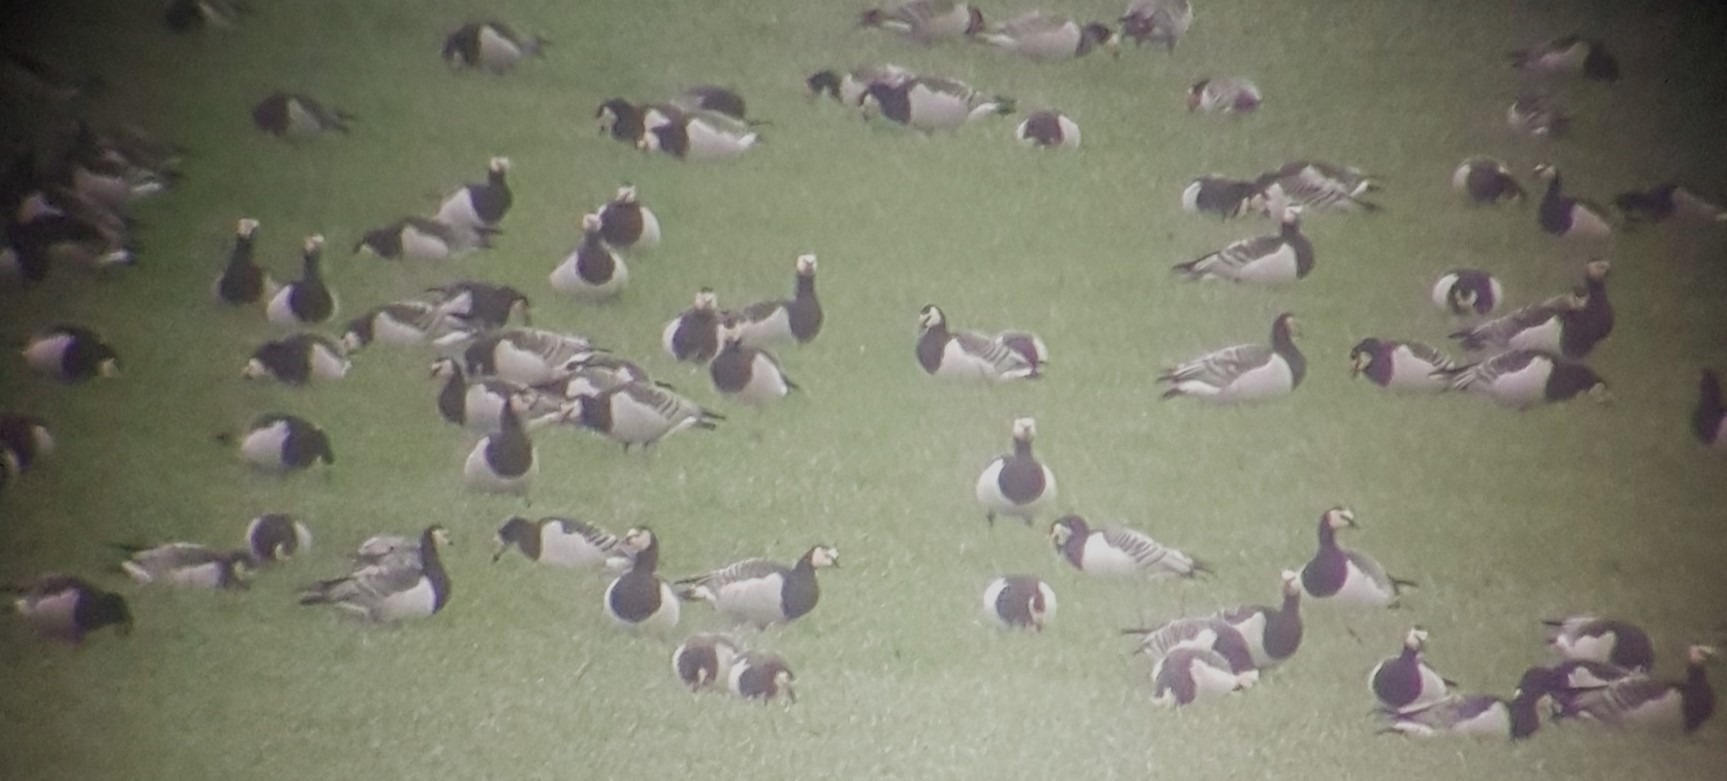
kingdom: Animalia
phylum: Chordata
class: Aves
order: Anseriformes
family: Anatidae
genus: Branta
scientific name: Branta leucopsis
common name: Bramgås
